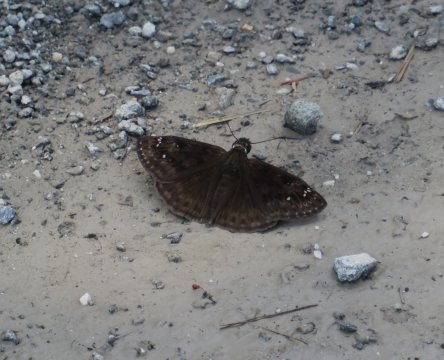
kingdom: Animalia
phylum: Arthropoda
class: Insecta
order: Lepidoptera
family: Hesperiidae
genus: Gesta
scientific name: Gesta
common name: Horace's Duskywing
